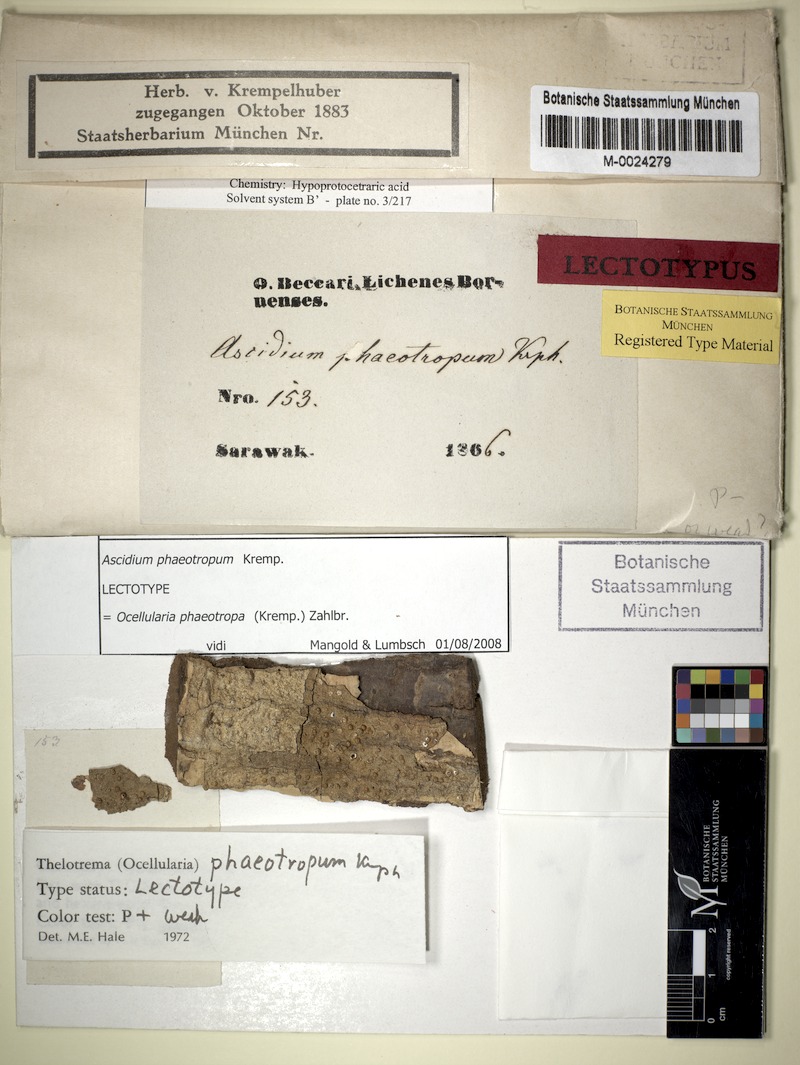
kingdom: Fungi
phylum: Ascomycota
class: Lecanoromycetes
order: Ostropales
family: Graphidaceae
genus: Ocellularia
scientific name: Ocellularia phaeotropa
